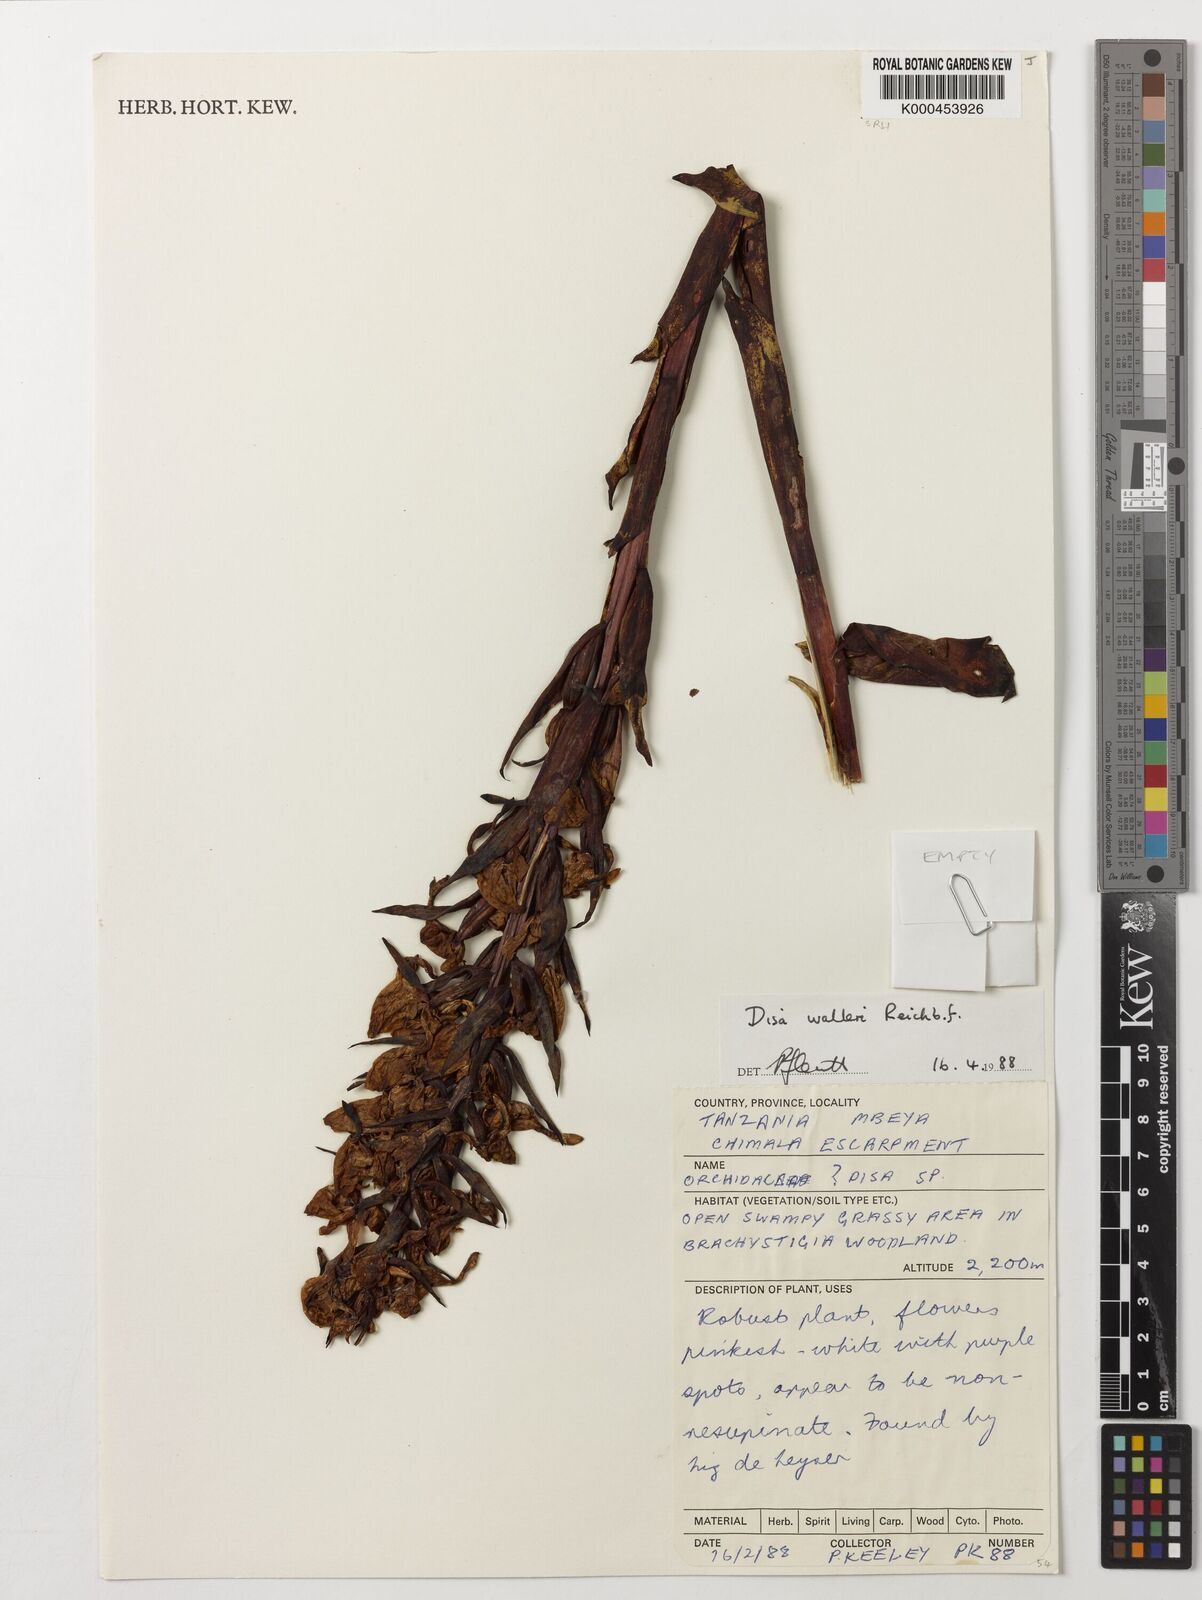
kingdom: Plantae
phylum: Tracheophyta
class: Liliopsida
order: Asparagales
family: Orchidaceae
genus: Disa
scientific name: Disa walleri
